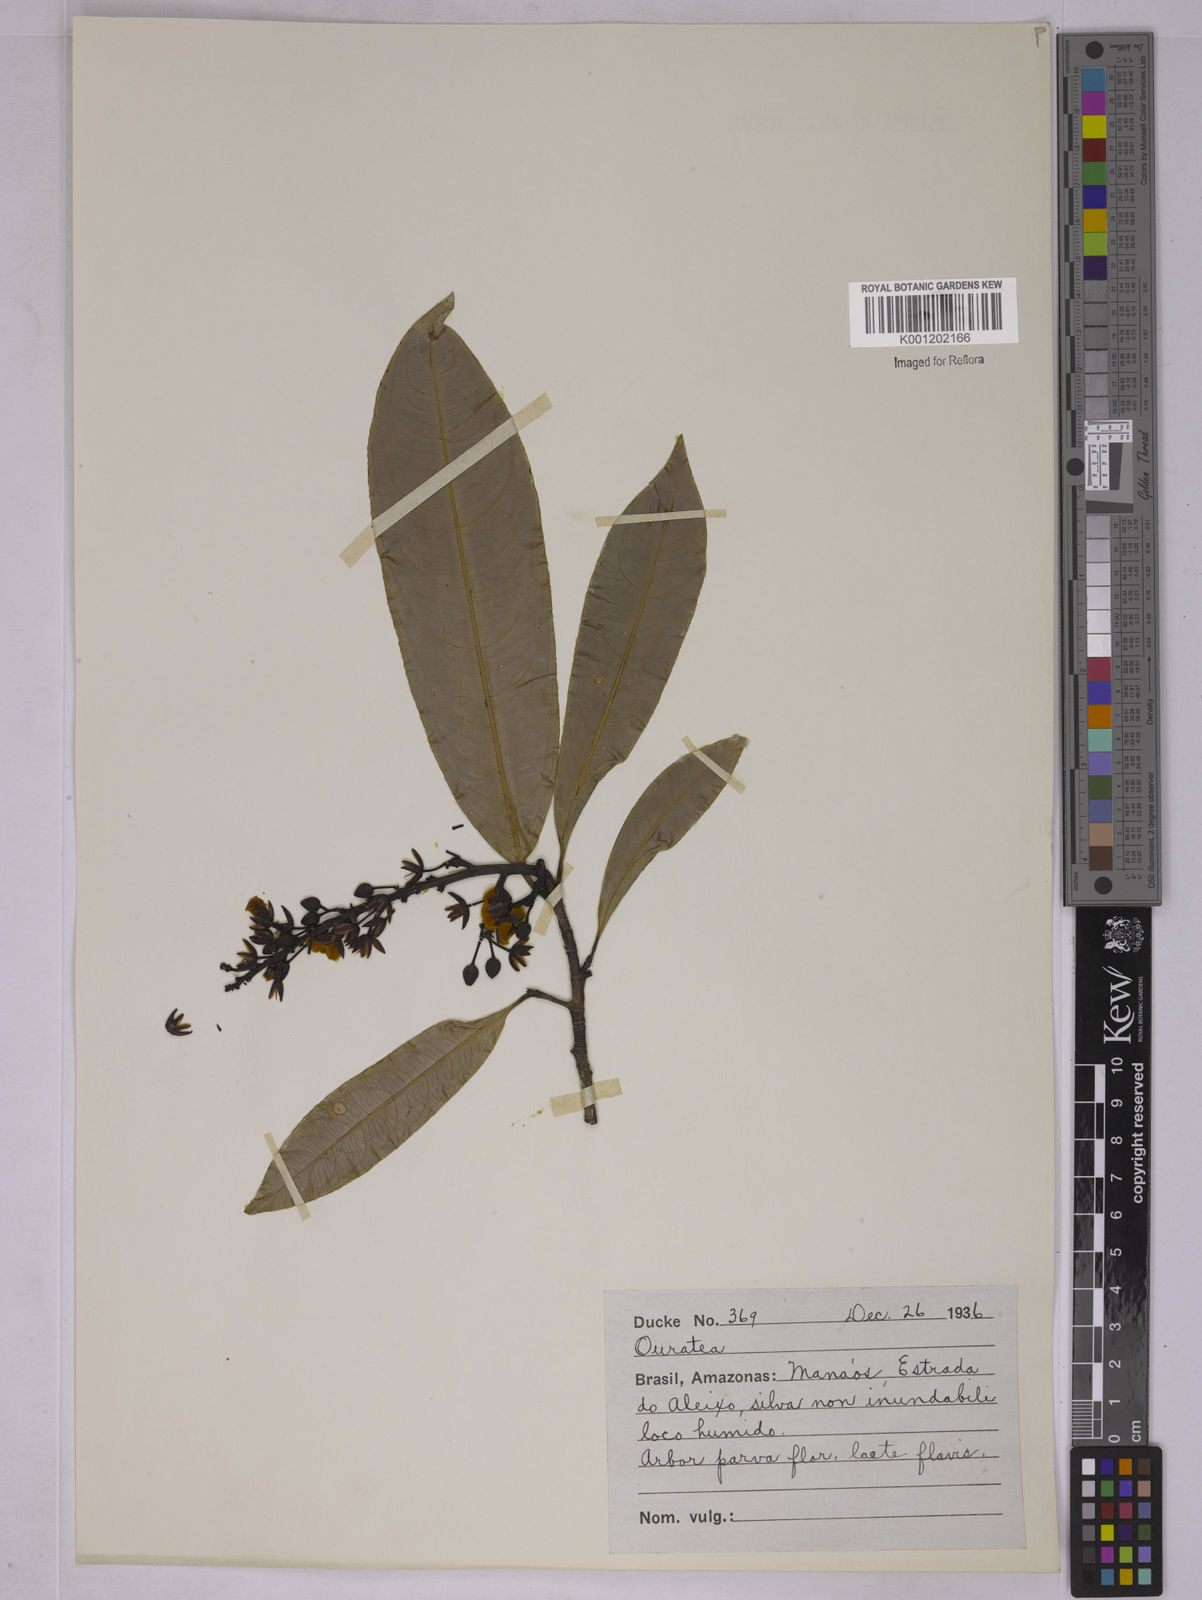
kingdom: Plantae
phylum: Tracheophyta
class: Magnoliopsida
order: Malpighiales
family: Ochnaceae
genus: Ouratea
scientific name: Ouratea
